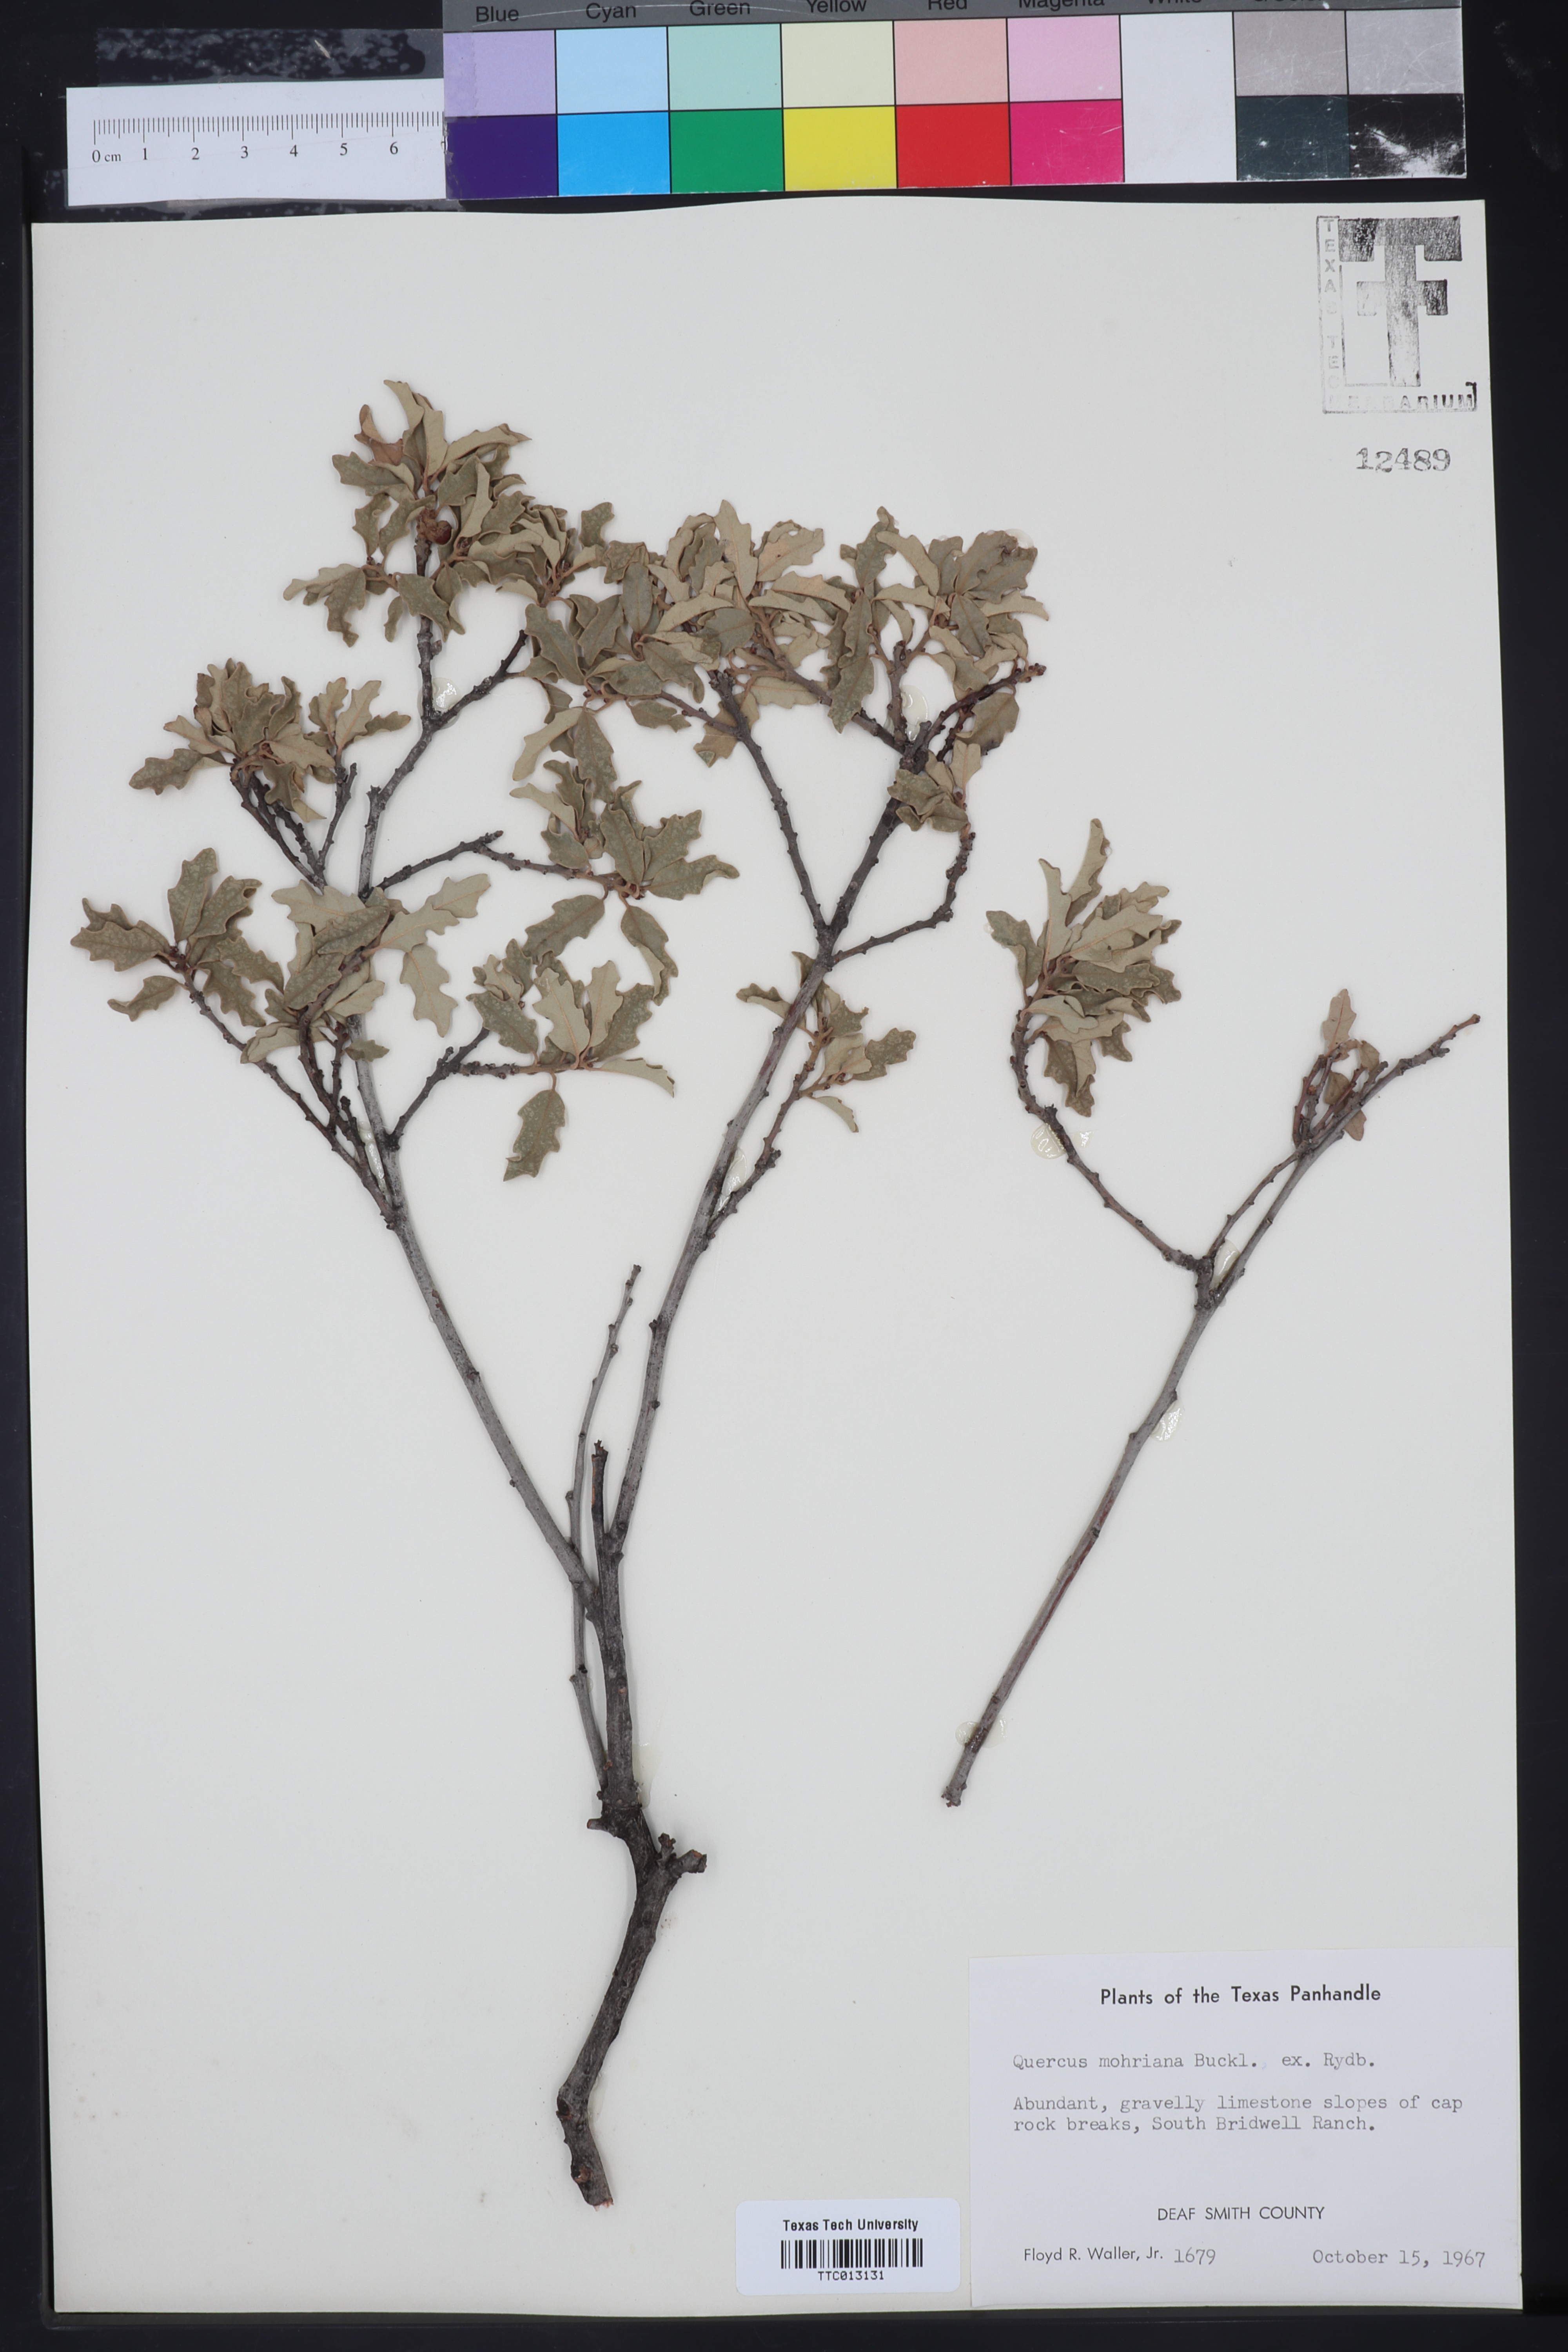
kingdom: Plantae
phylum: Tracheophyta
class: Magnoliopsida
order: Fagales
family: Fagaceae
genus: Quercus
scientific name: Quercus mohriana
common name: Mohr oak
